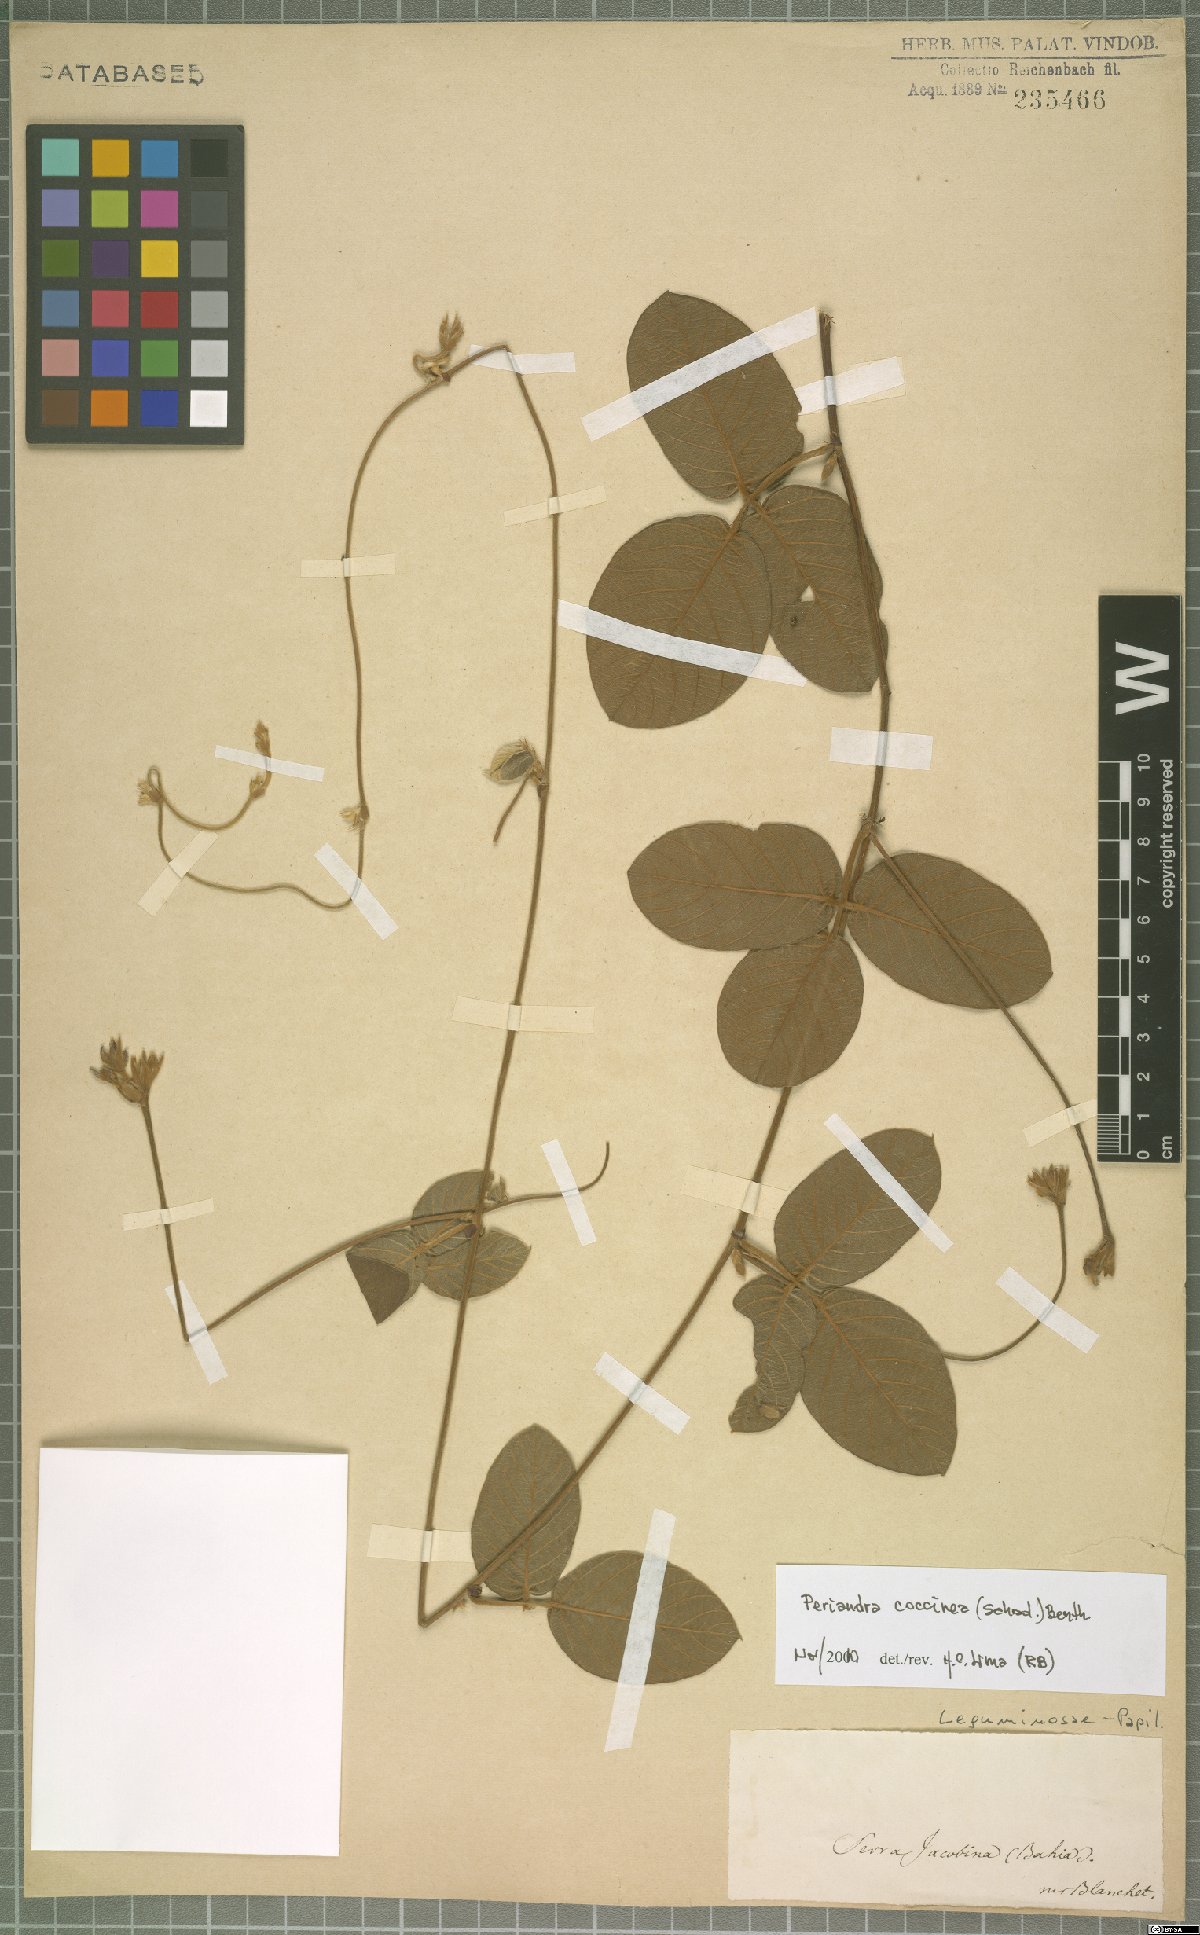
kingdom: Plantae
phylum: Tracheophyta
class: Magnoliopsida
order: Fabales
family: Fabaceae
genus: Periandra
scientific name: Periandra coccinea
